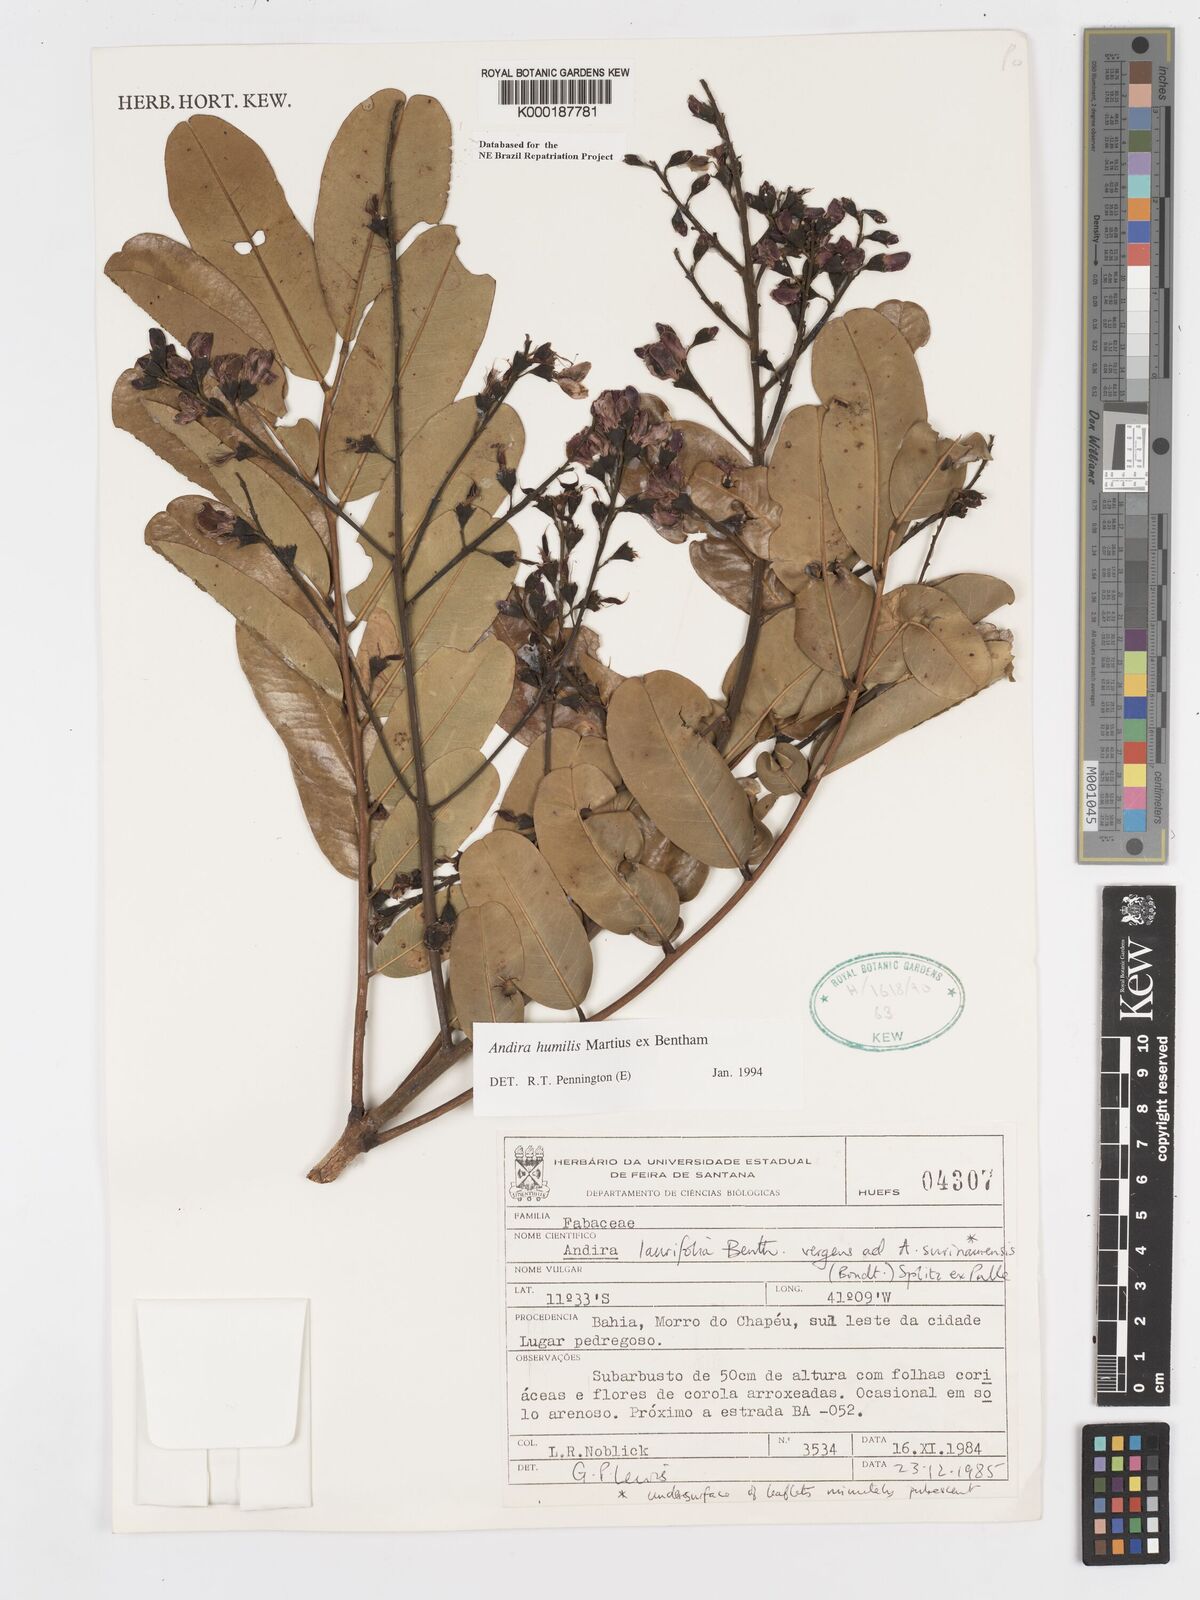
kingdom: Plantae
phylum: Tracheophyta
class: Magnoliopsida
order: Fabales
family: Fabaceae
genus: Andira
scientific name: Andira humilis
